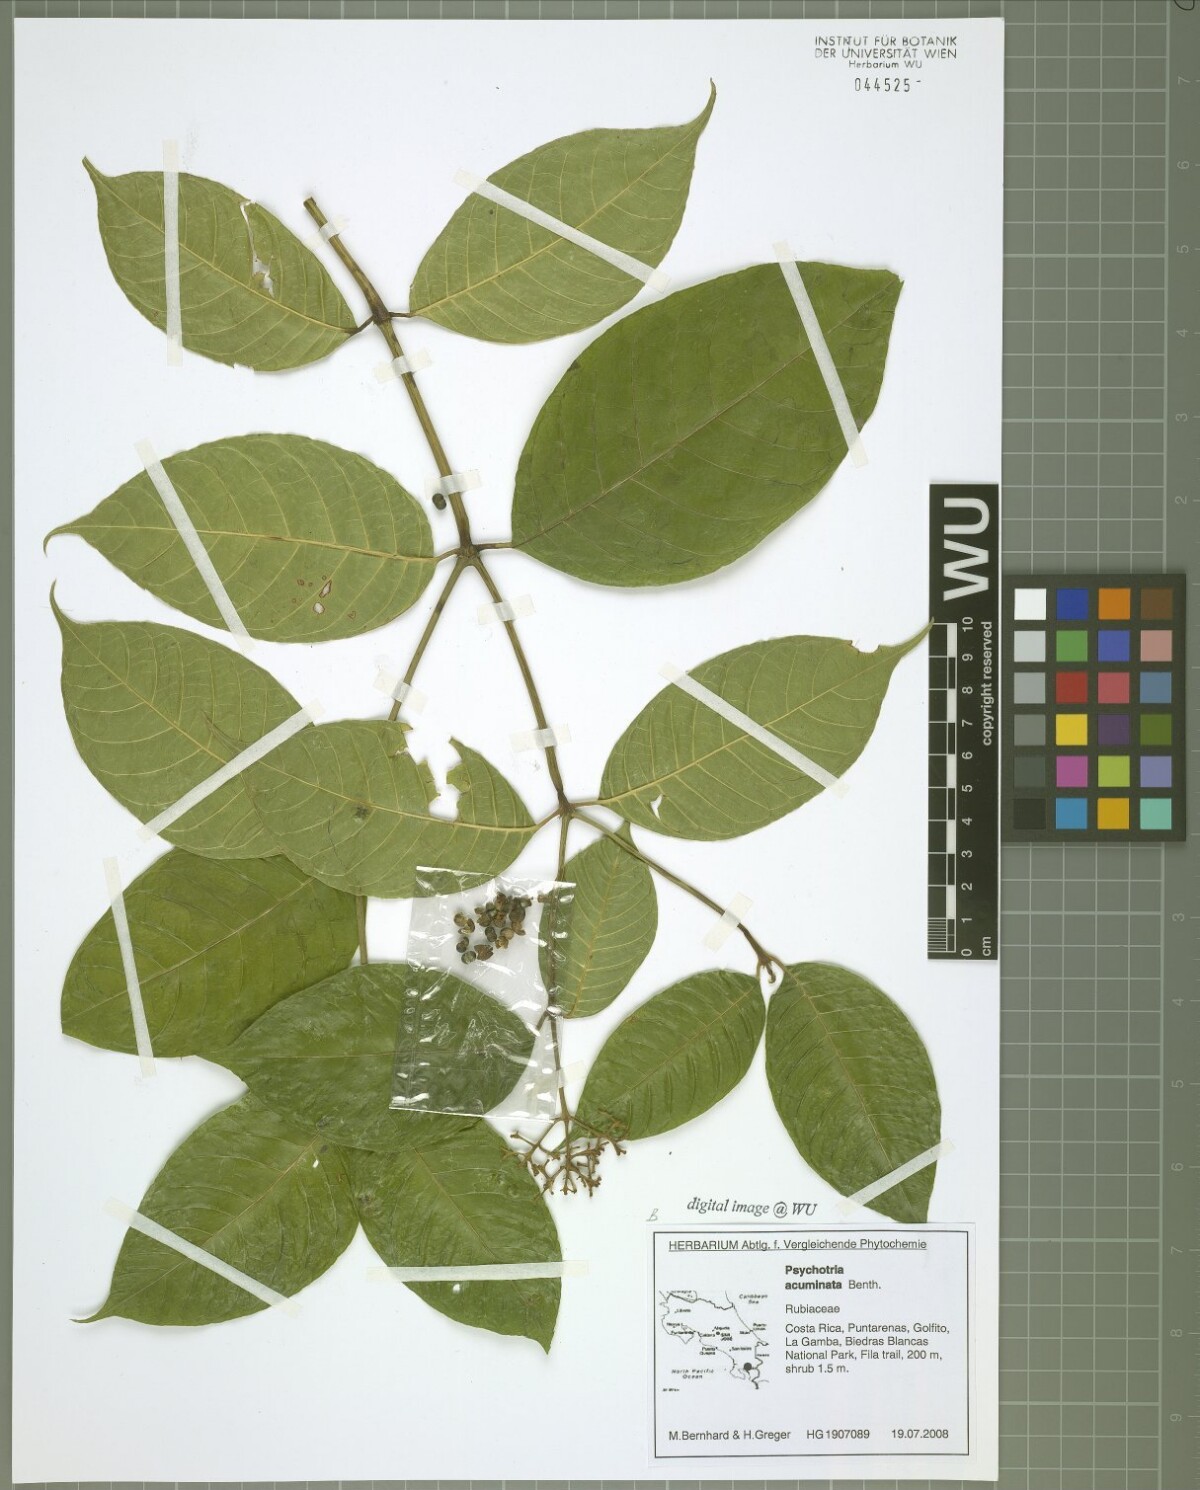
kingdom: Plantae
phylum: Tracheophyta
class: Magnoliopsida
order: Gentianales
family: Rubiaceae
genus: Palicourea
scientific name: Palicourea acuminata
